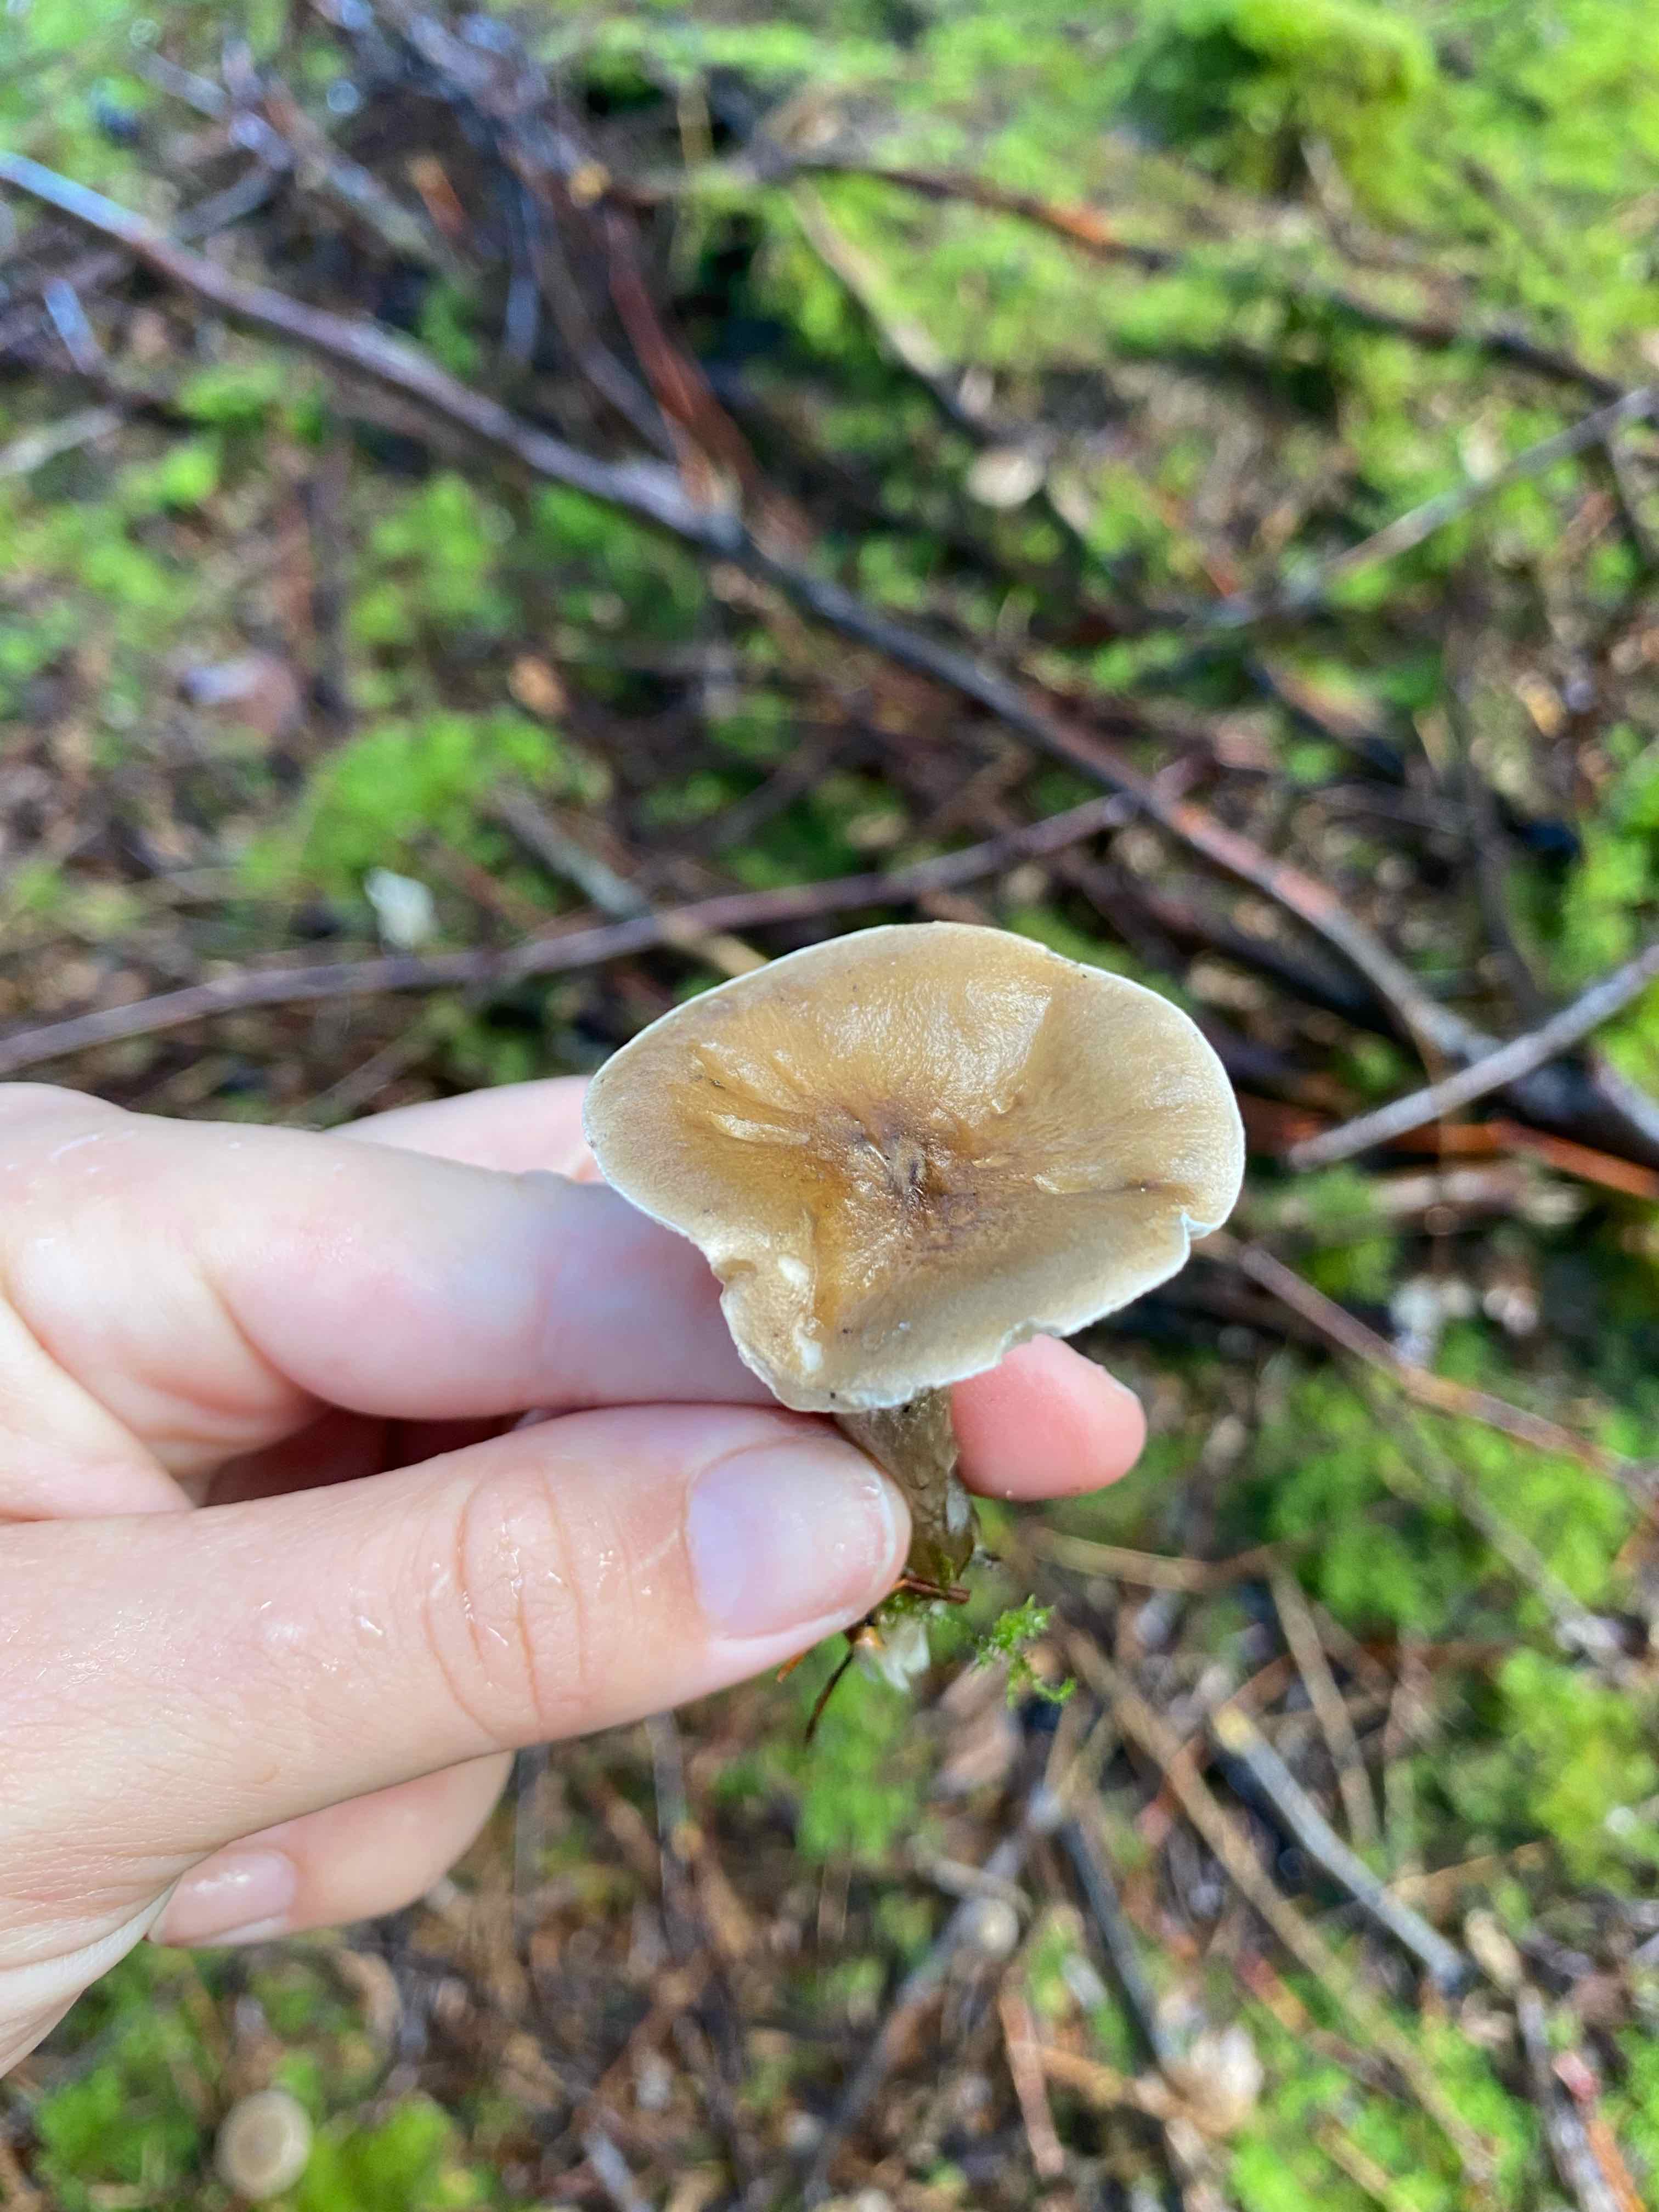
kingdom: Fungi
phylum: Basidiomycota
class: Agaricomycetes
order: Agaricales
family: Hygrophoraceae
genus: Ampulloclitocybe
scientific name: Ampulloclitocybe clavipes
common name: køllefod
